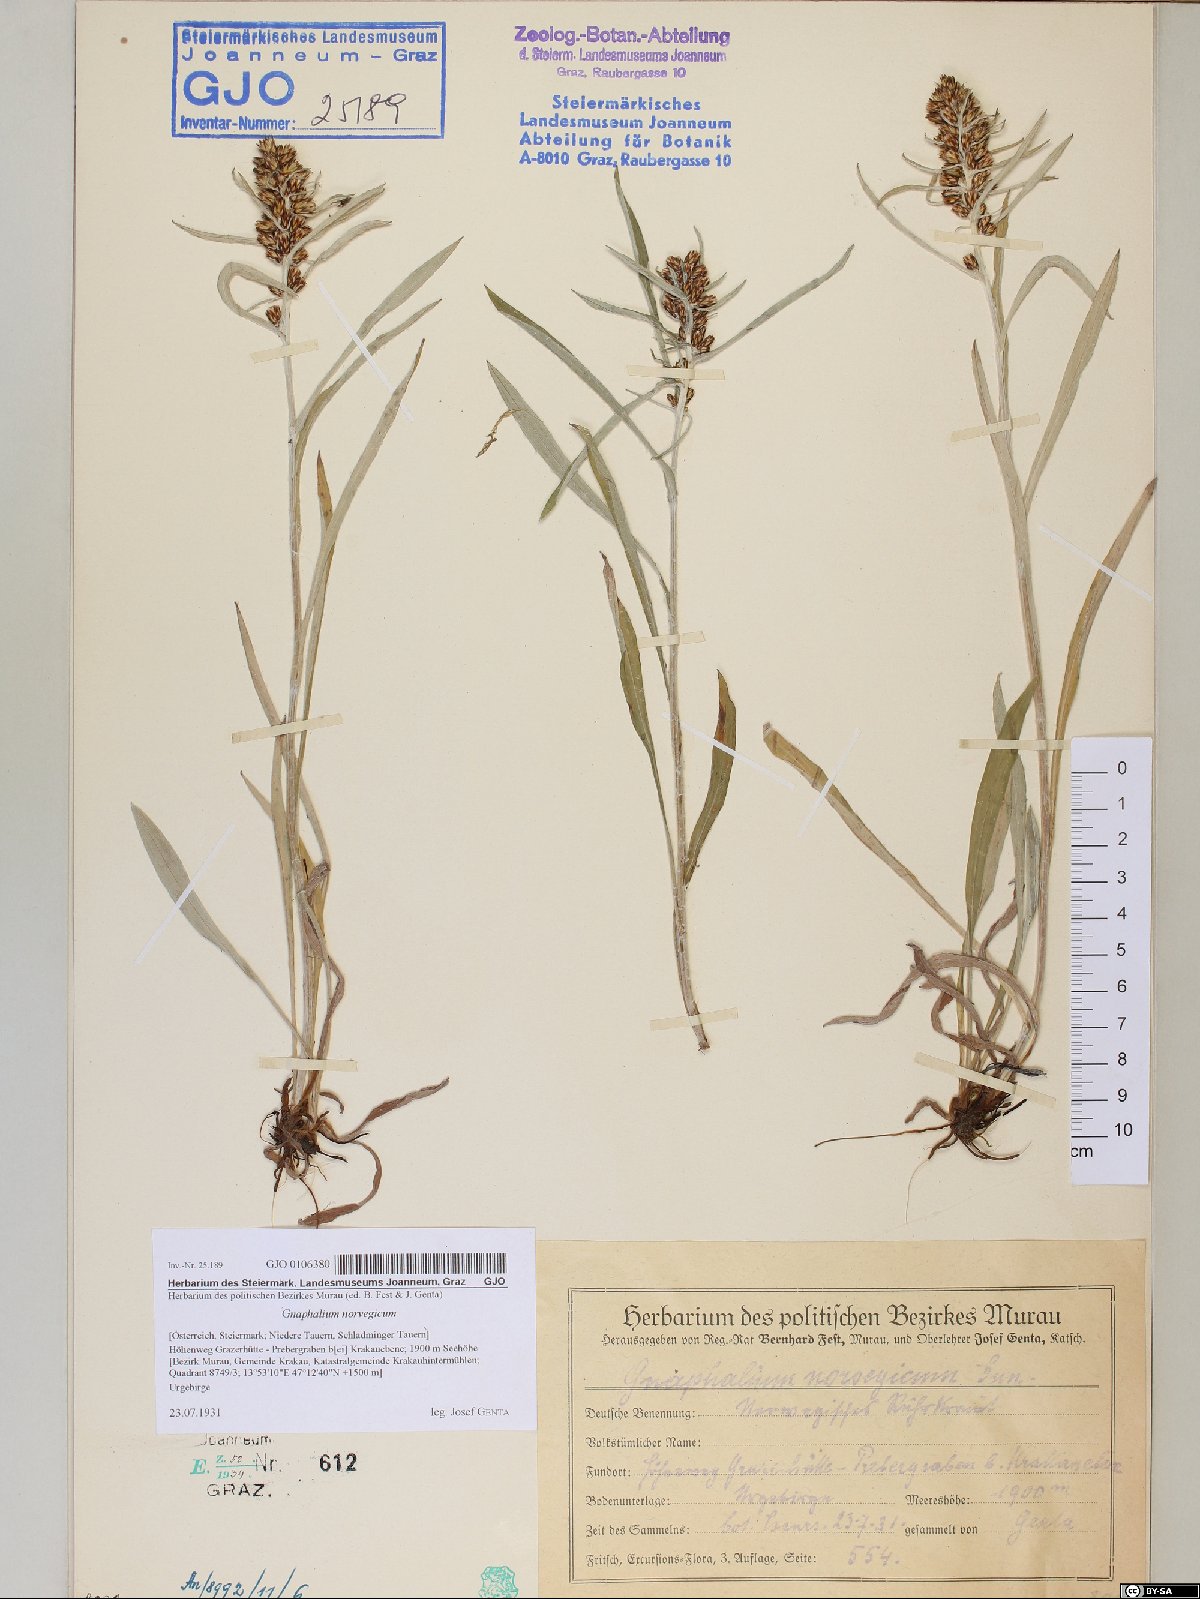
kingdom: Plantae
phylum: Tracheophyta
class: Magnoliopsida
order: Asterales
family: Asteraceae
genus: Omalotheca
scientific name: Omalotheca norvegica
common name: Norwegian arctic-cudweed
